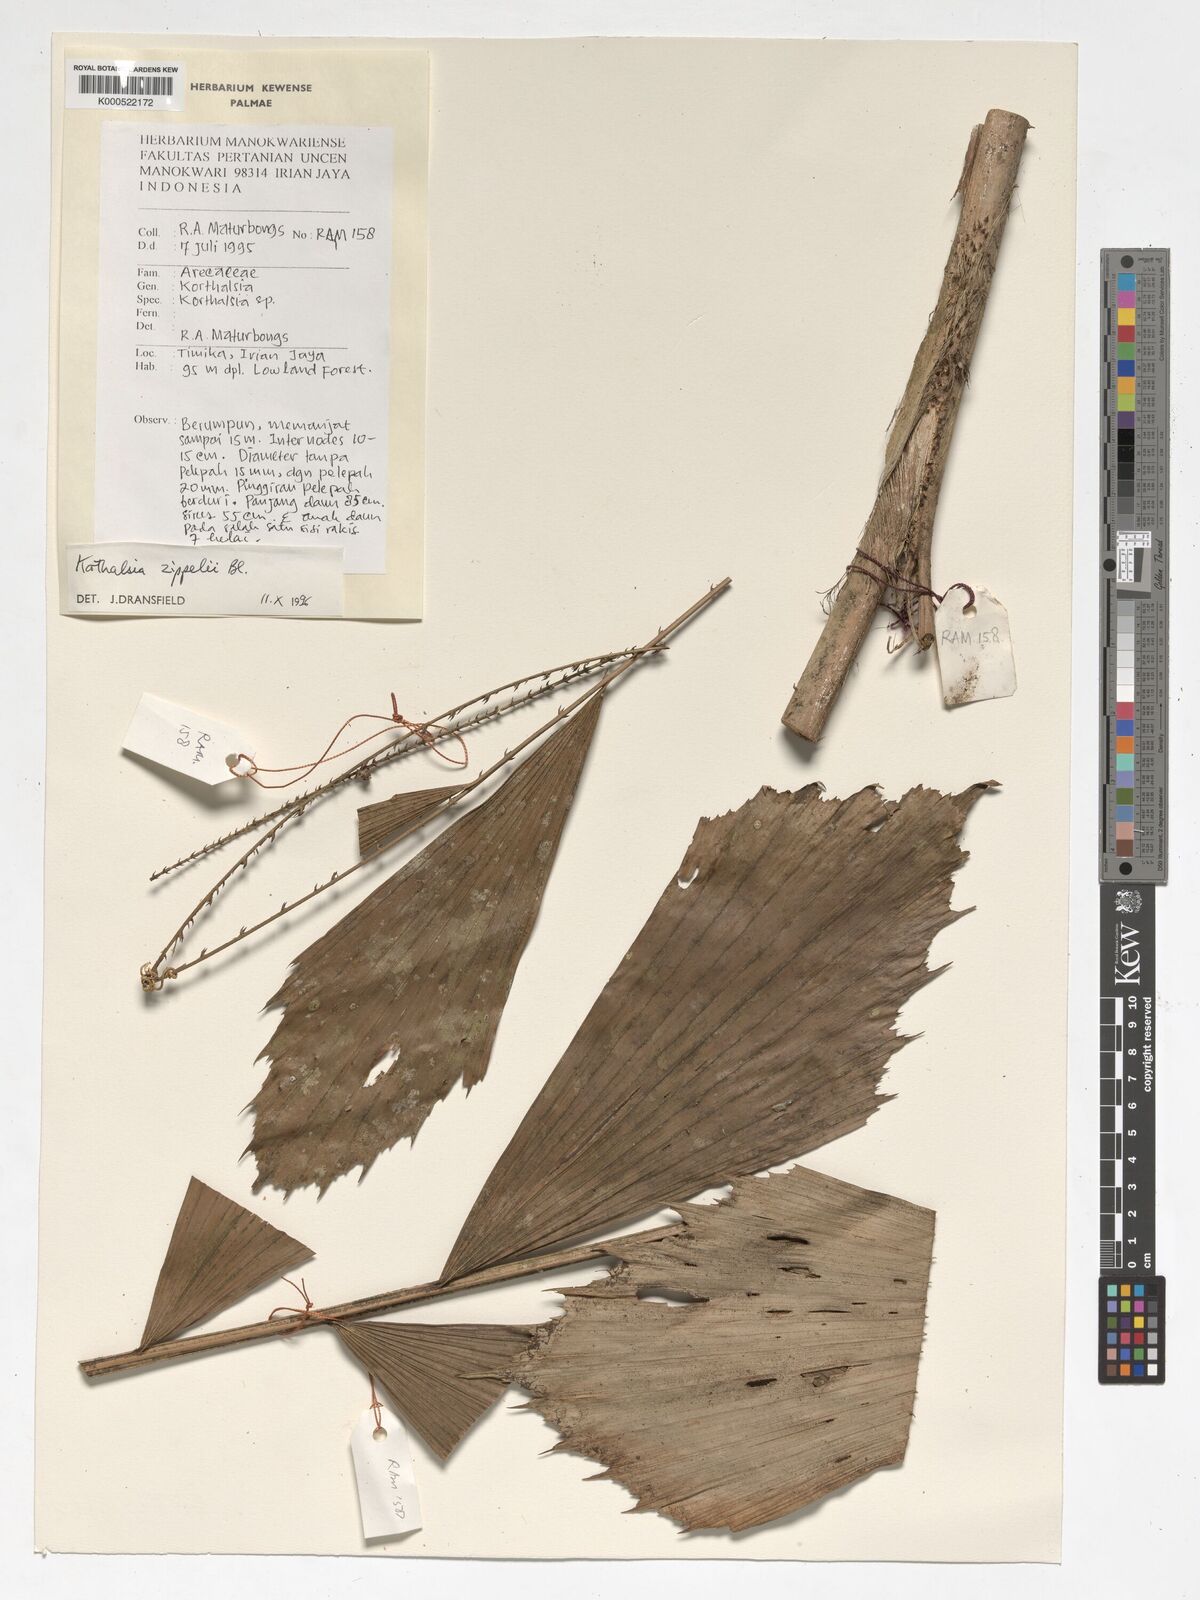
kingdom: Plantae
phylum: Tracheophyta
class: Liliopsida
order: Arecales
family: Arecaceae
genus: Korthalsia
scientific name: Korthalsia zippelii
